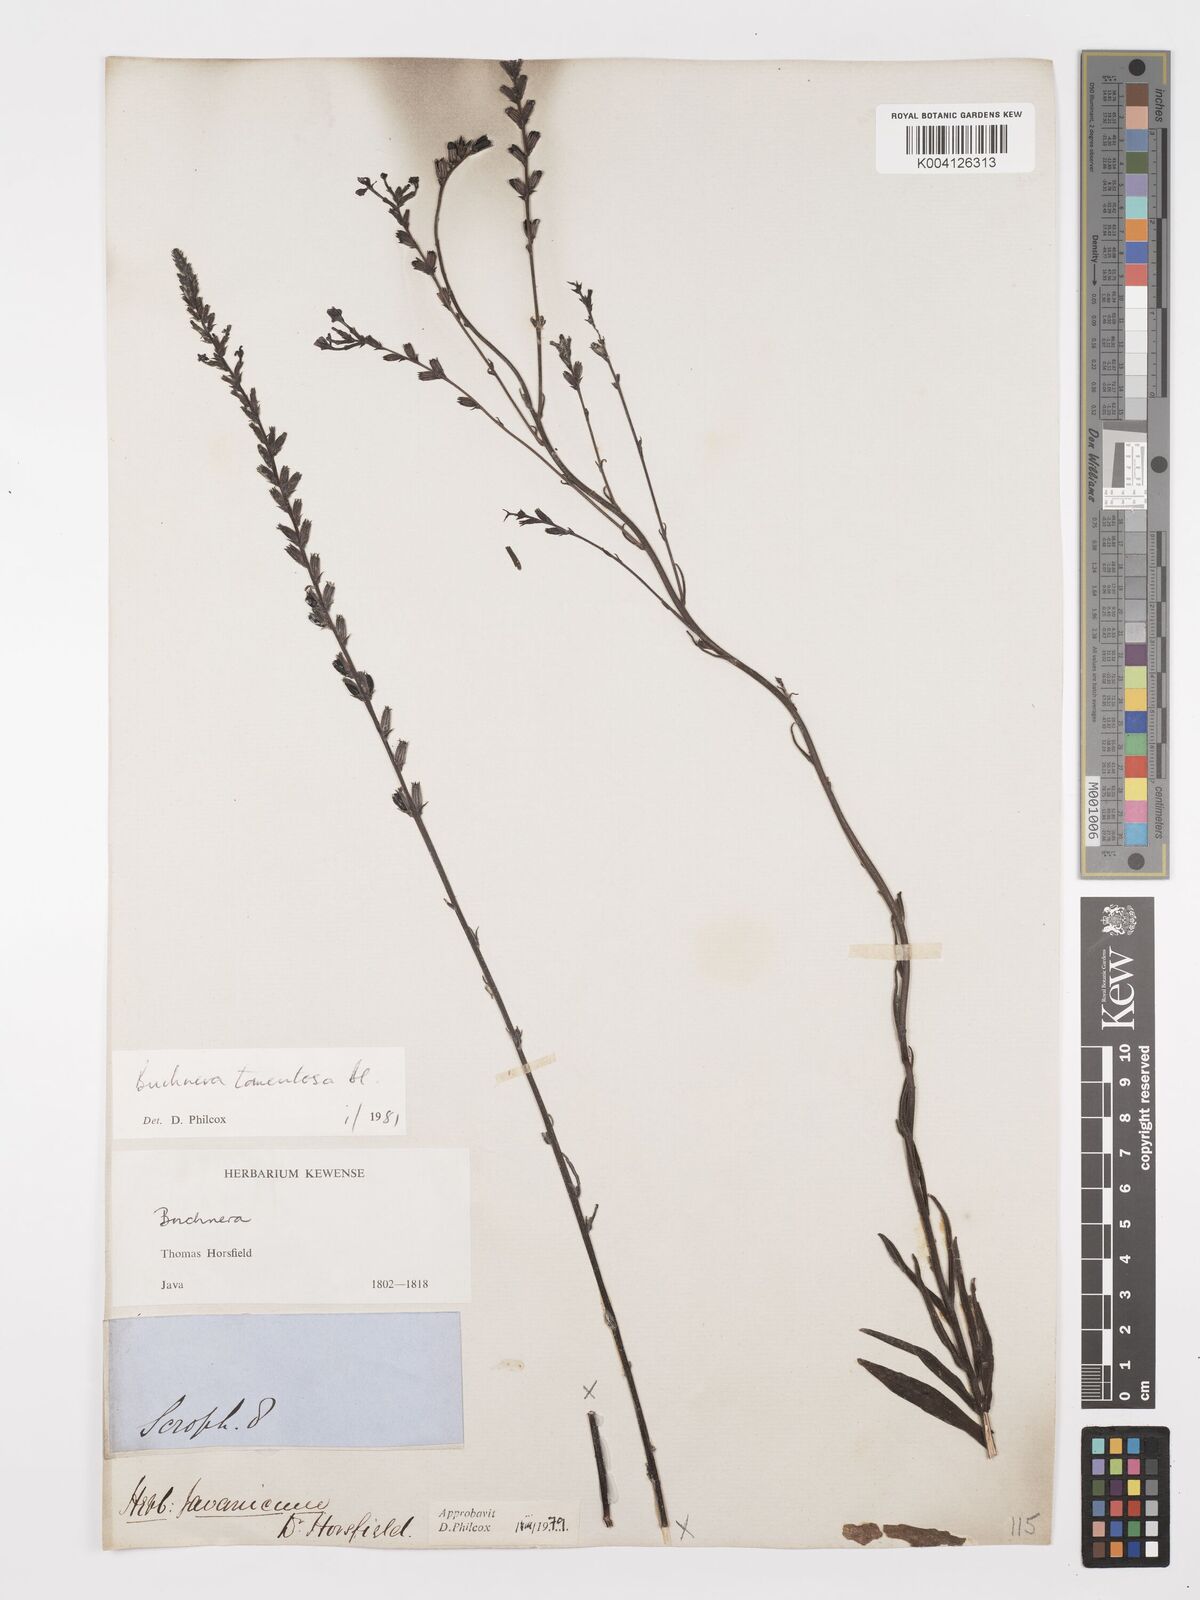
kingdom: Plantae
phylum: Tracheophyta
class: Magnoliopsida
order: Lamiales
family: Orobanchaceae
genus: Buchnera
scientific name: Buchnera tomentosa
